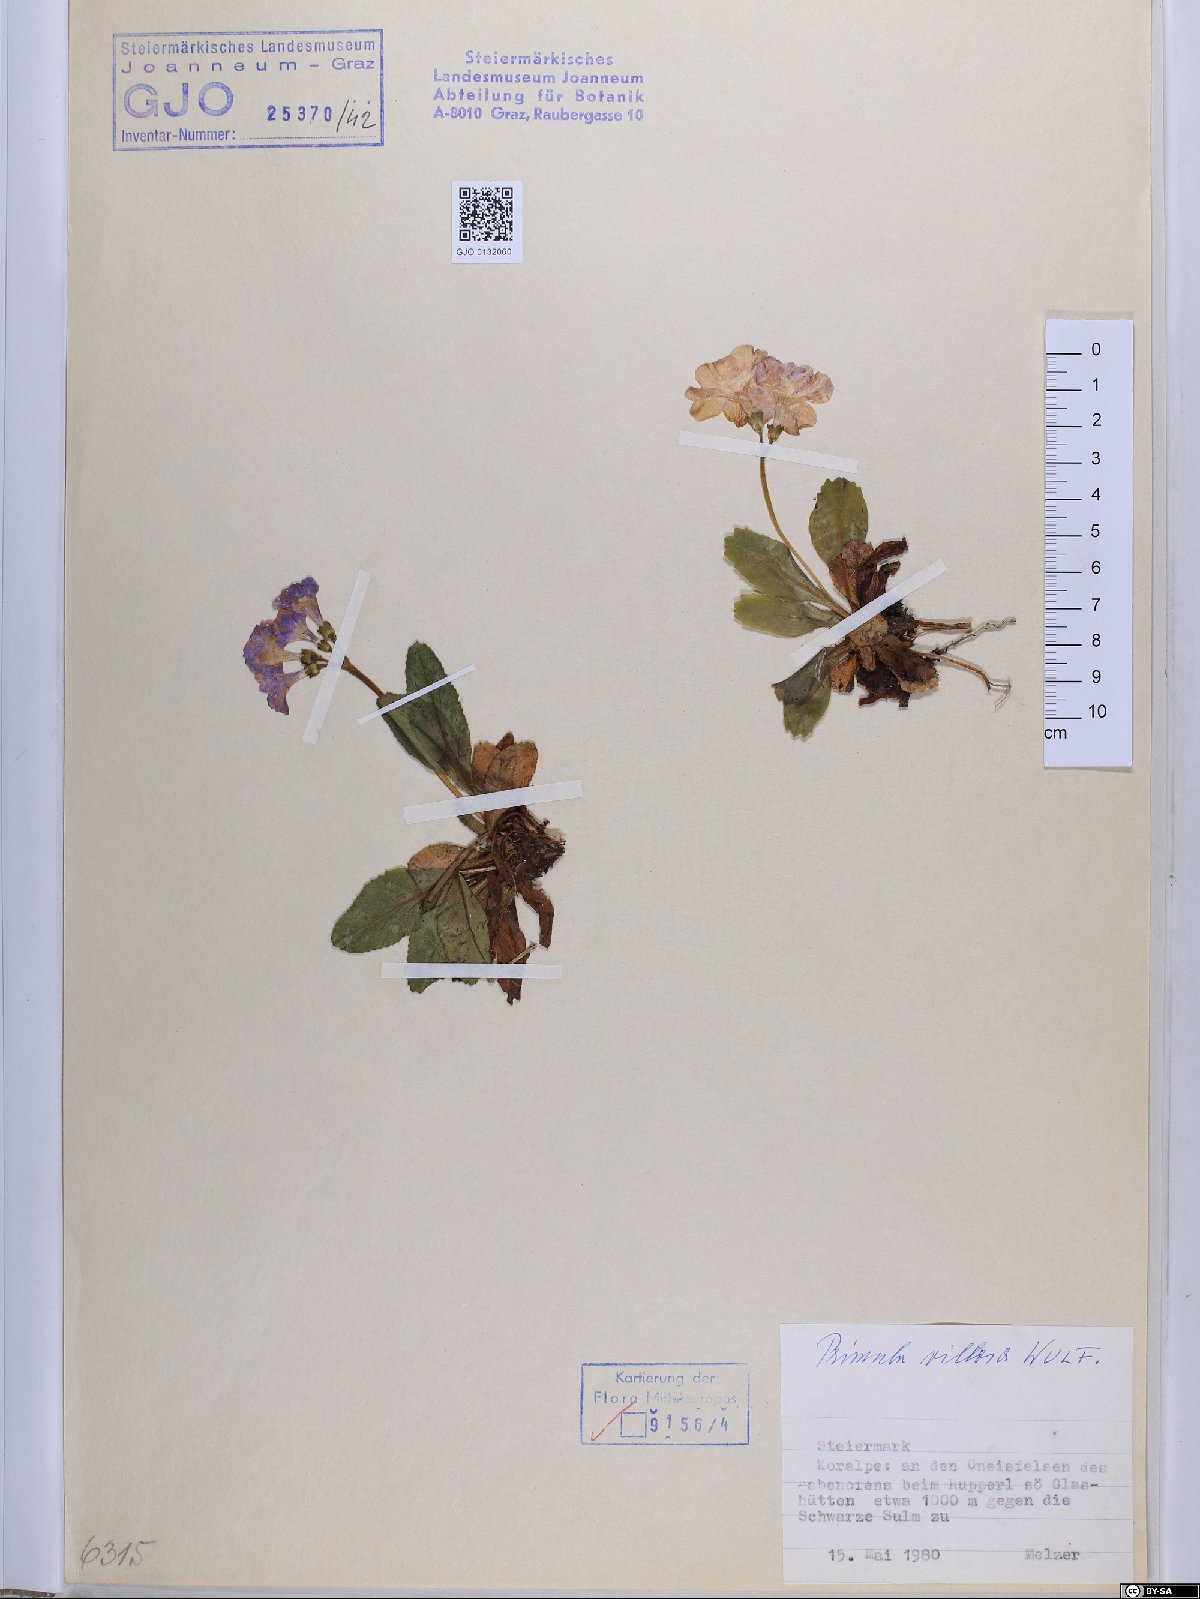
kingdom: Plantae
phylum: Tracheophyta
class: Magnoliopsida
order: Ericales
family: Primulaceae
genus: Primula
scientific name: Primula villosa
